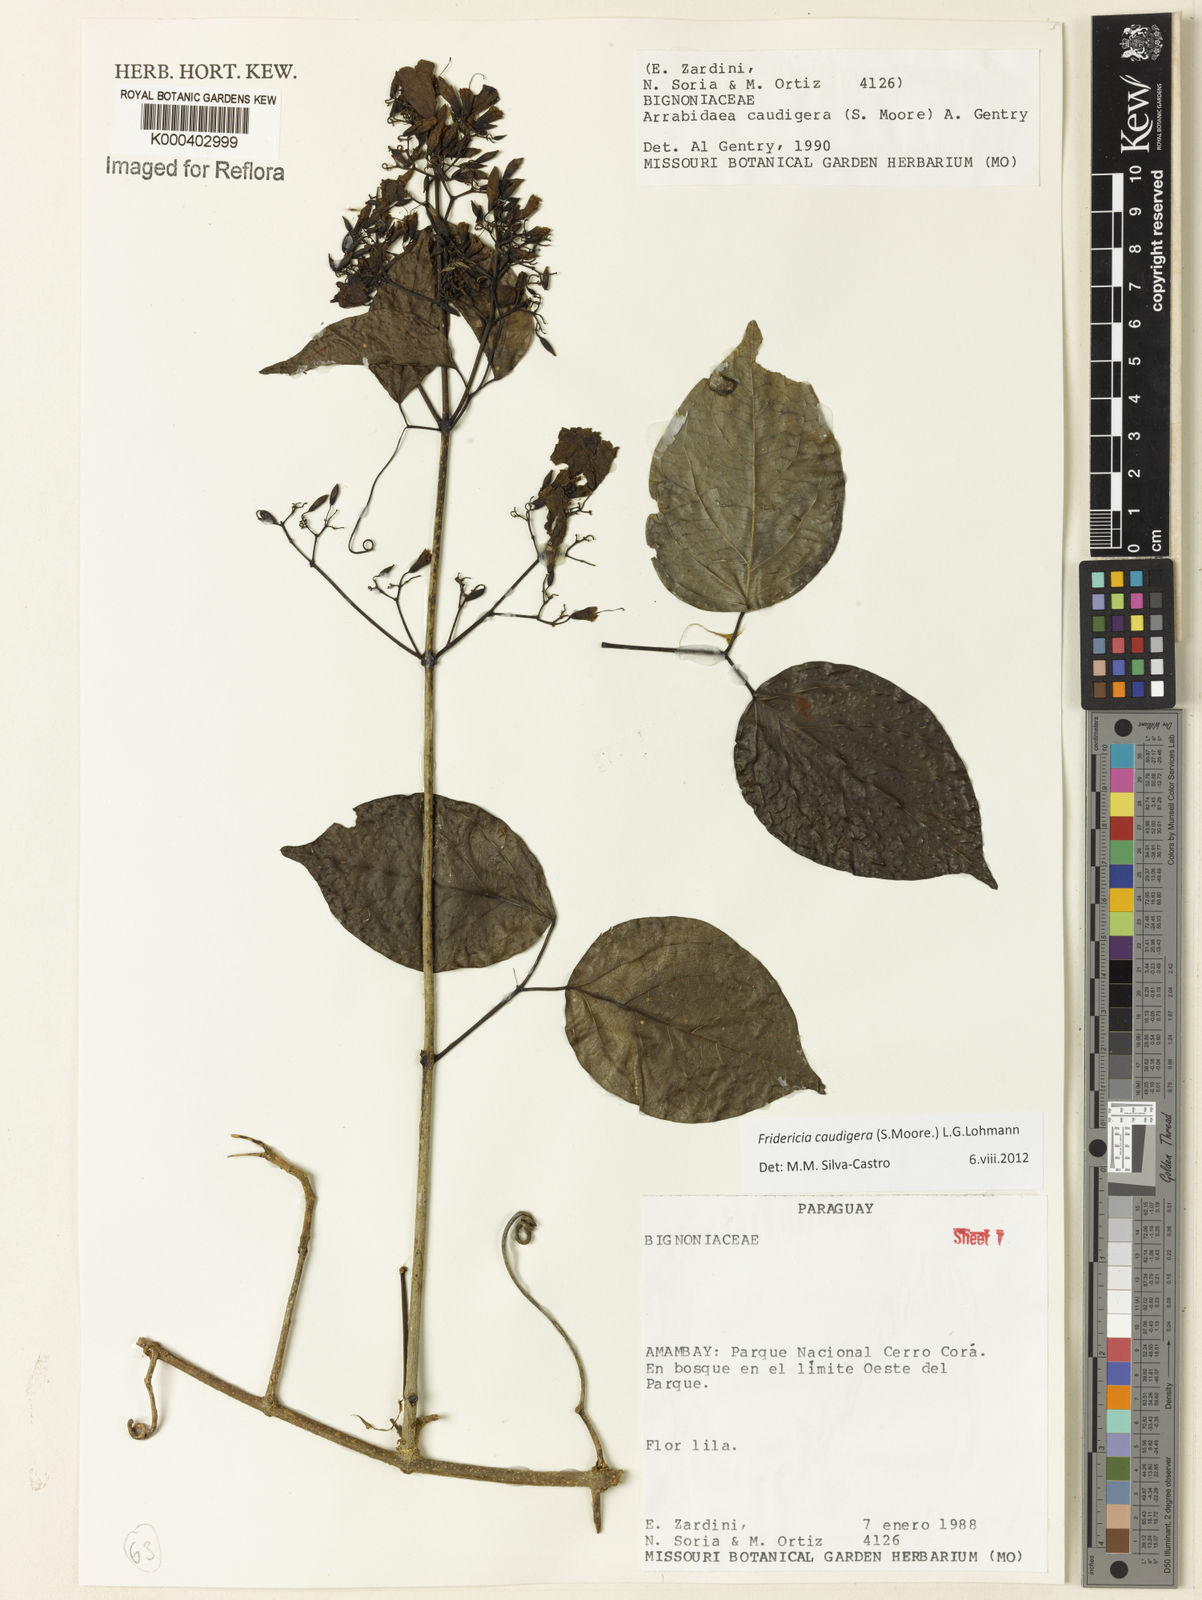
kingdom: Plantae
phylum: Tracheophyta
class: Magnoliopsida
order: Lamiales
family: Bignoniaceae
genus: Fridericia
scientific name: Fridericia caudigera
